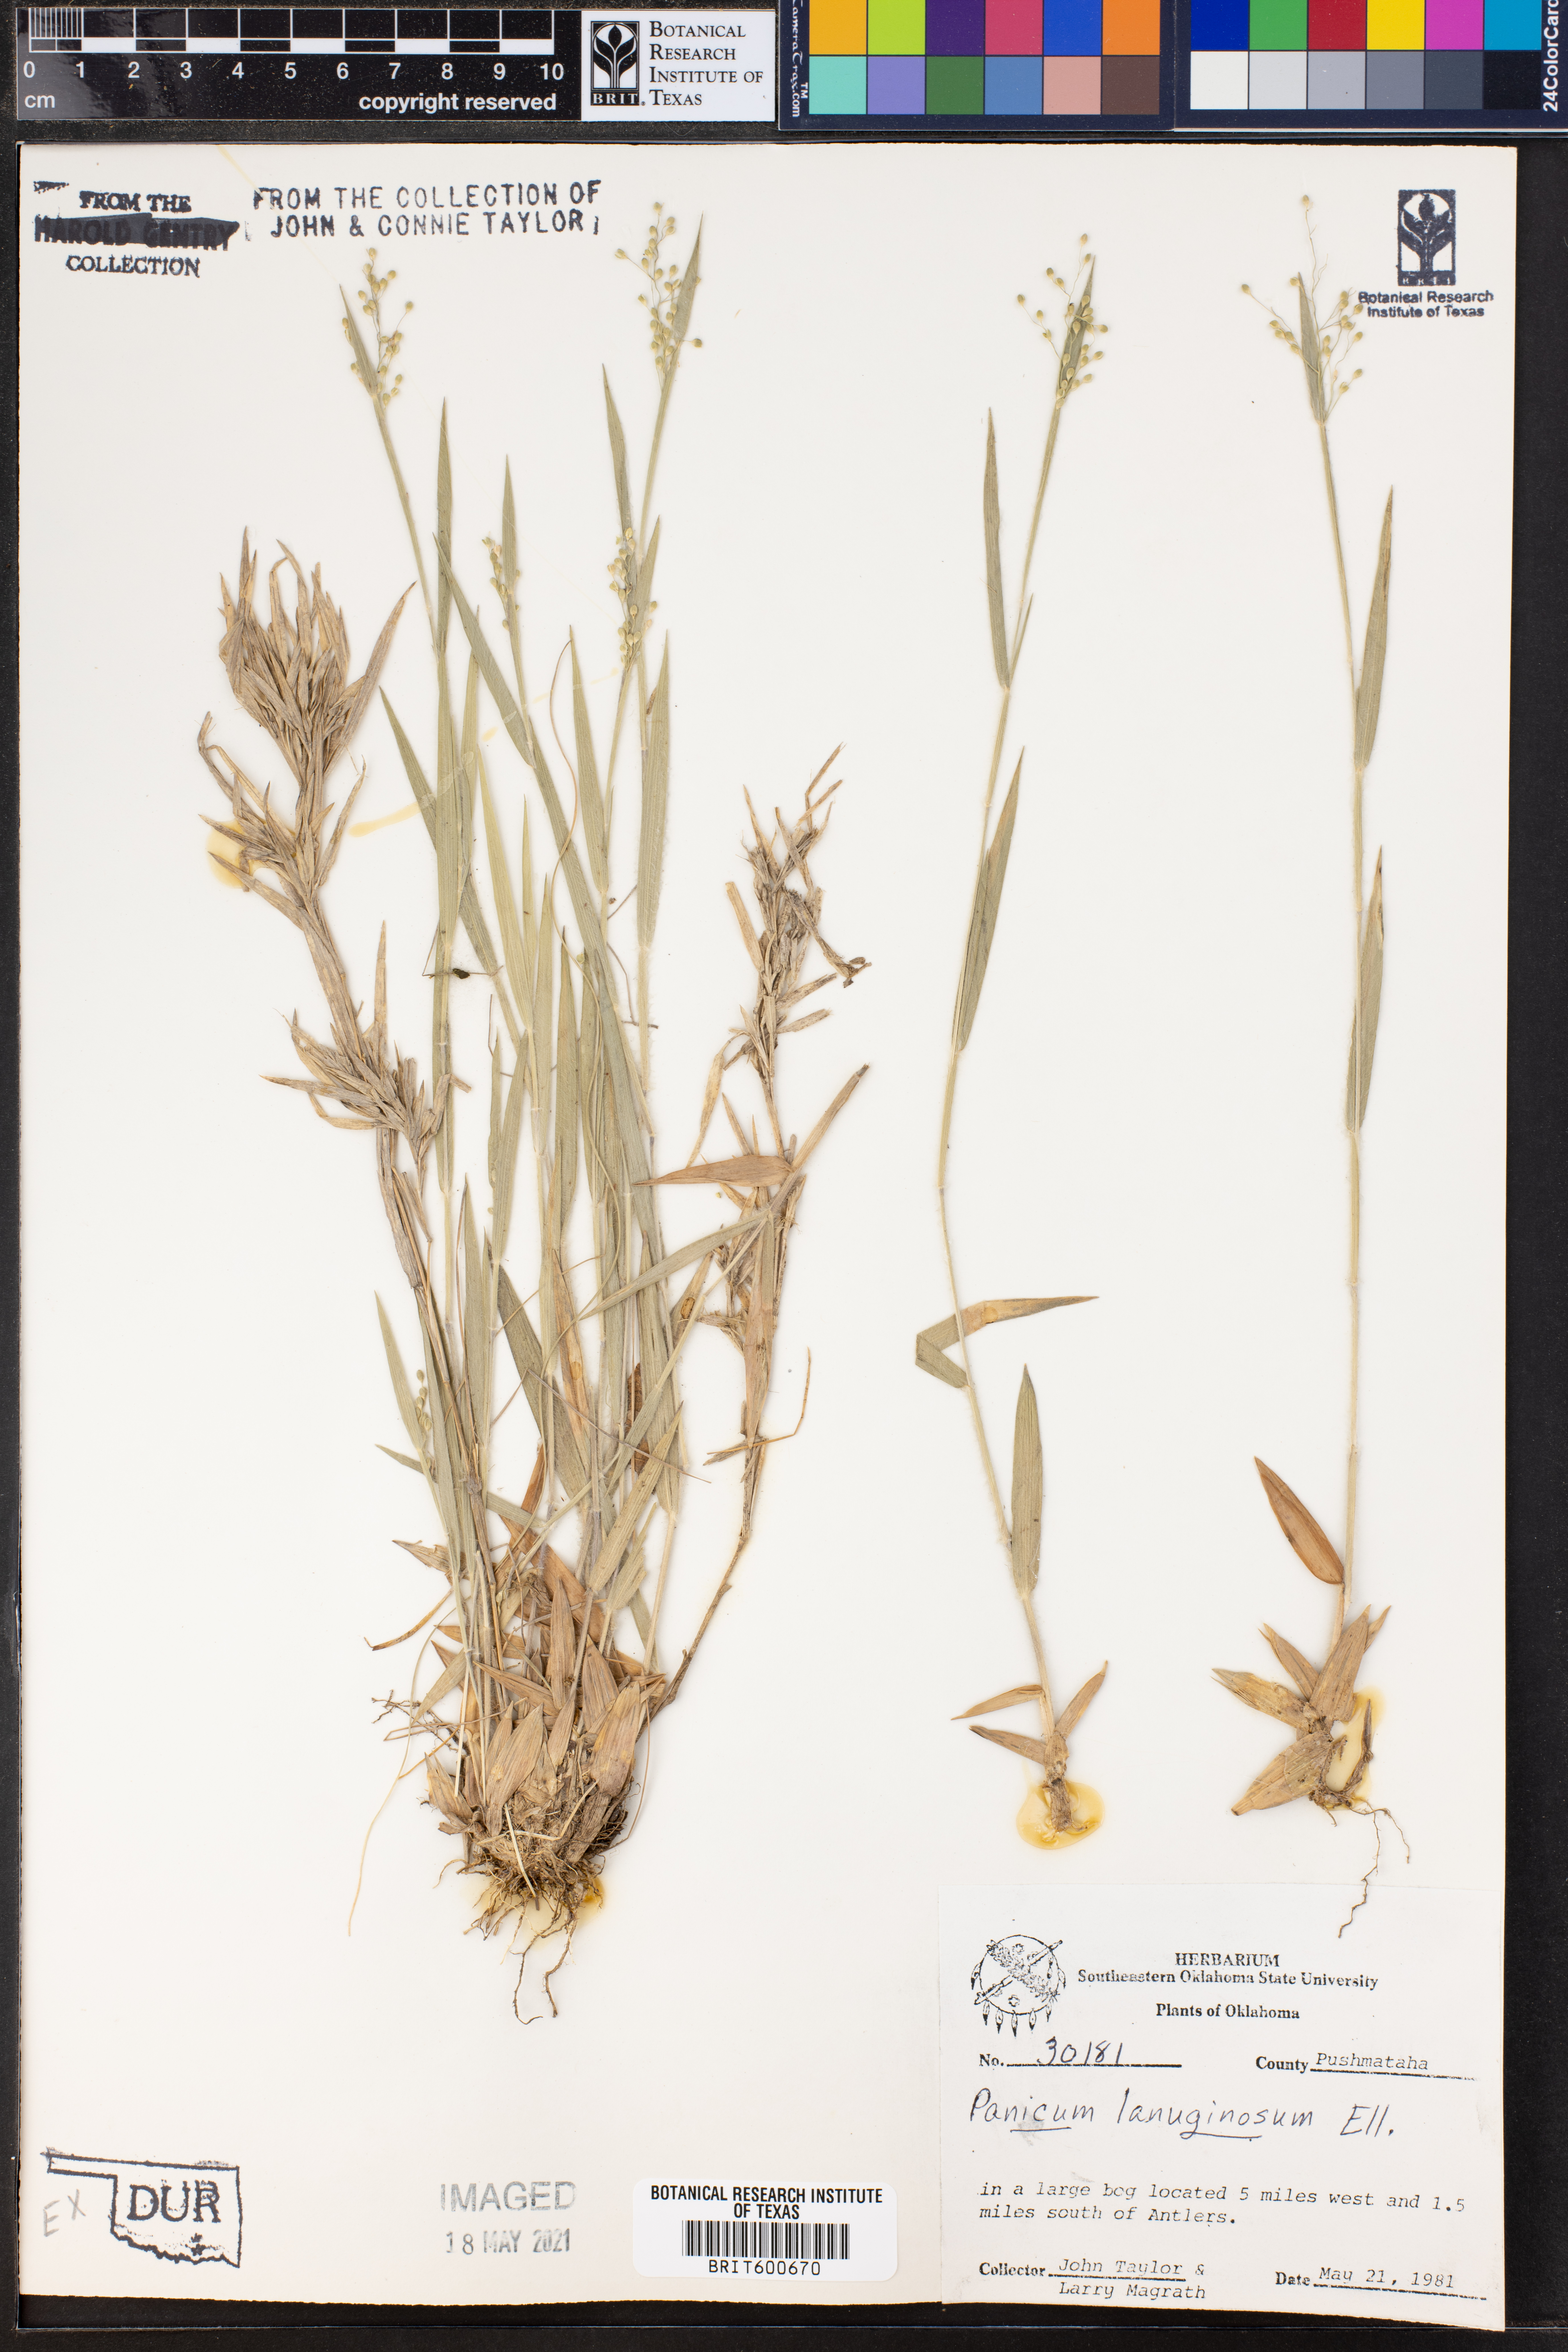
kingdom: Plantae
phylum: Tracheophyta
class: Liliopsida
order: Poales
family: Poaceae
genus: Dichanthelium
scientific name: Dichanthelium lanuginosum
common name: Woolly panicgrass
